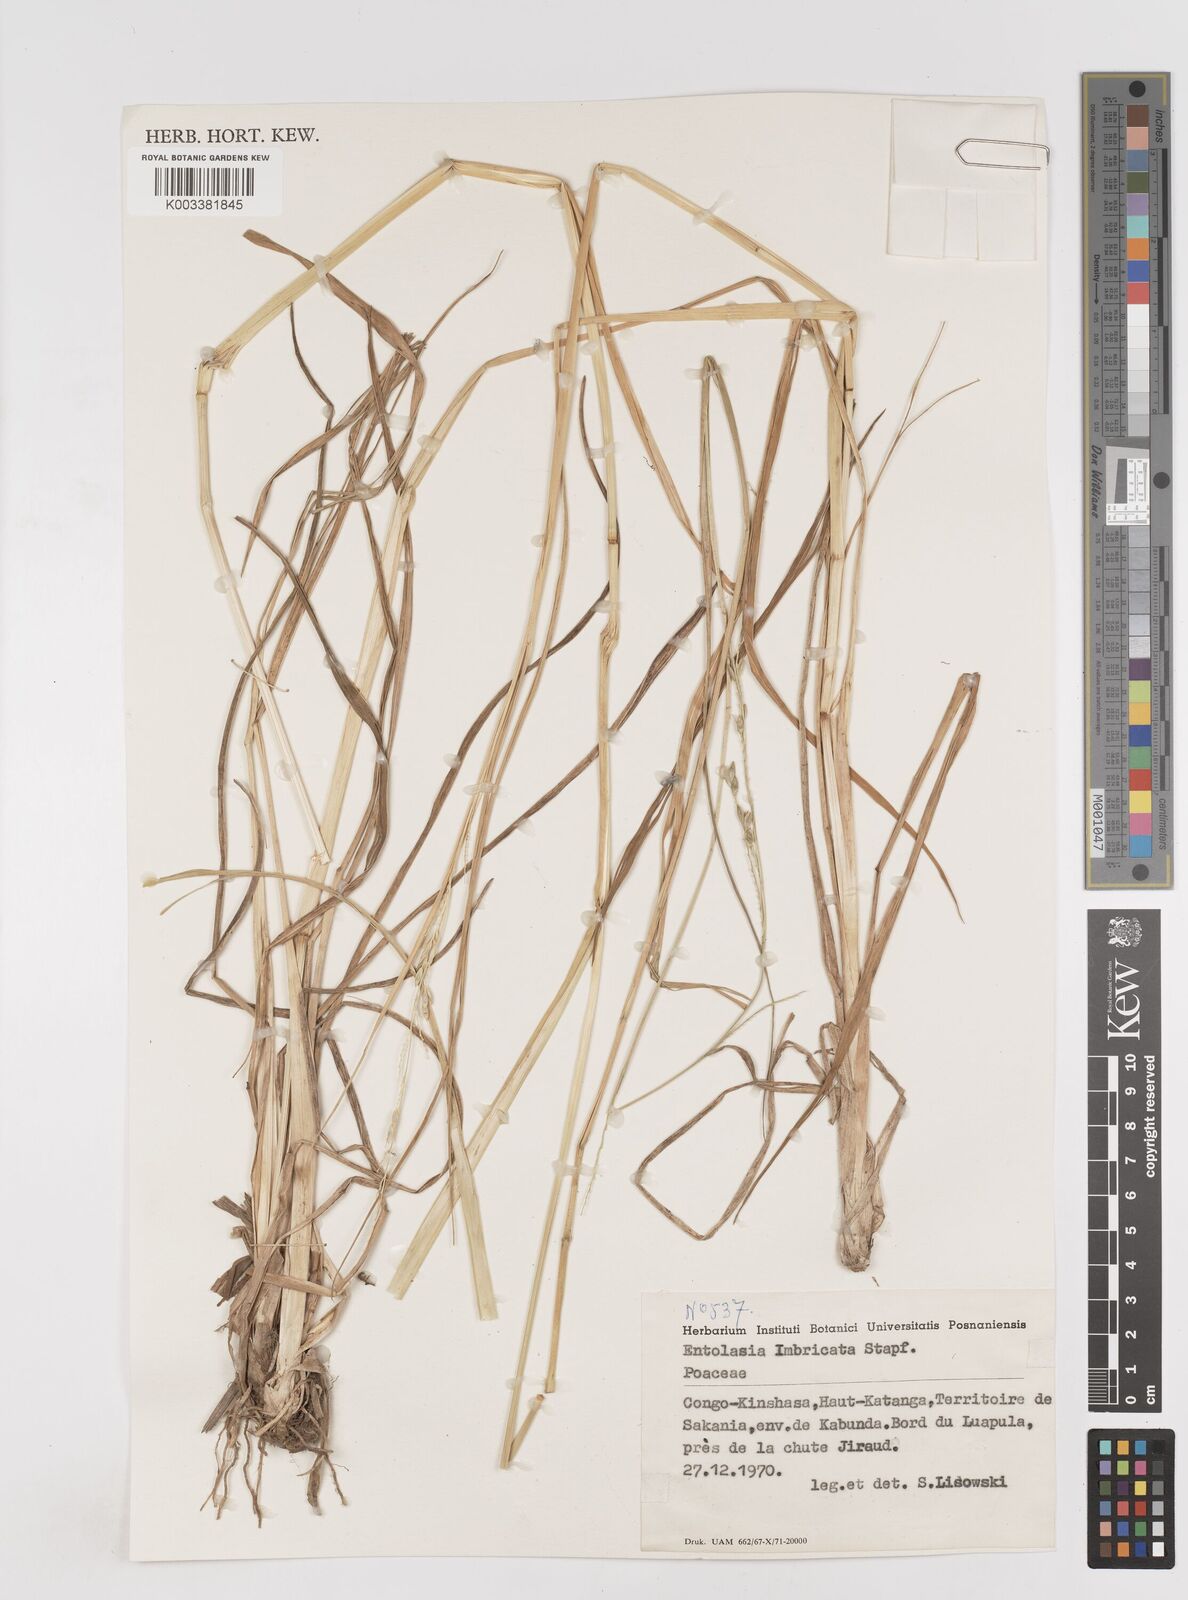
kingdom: Plantae
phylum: Tracheophyta
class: Liliopsida
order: Poales
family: Poaceae
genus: Entolasia
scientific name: Entolasia imbricata
